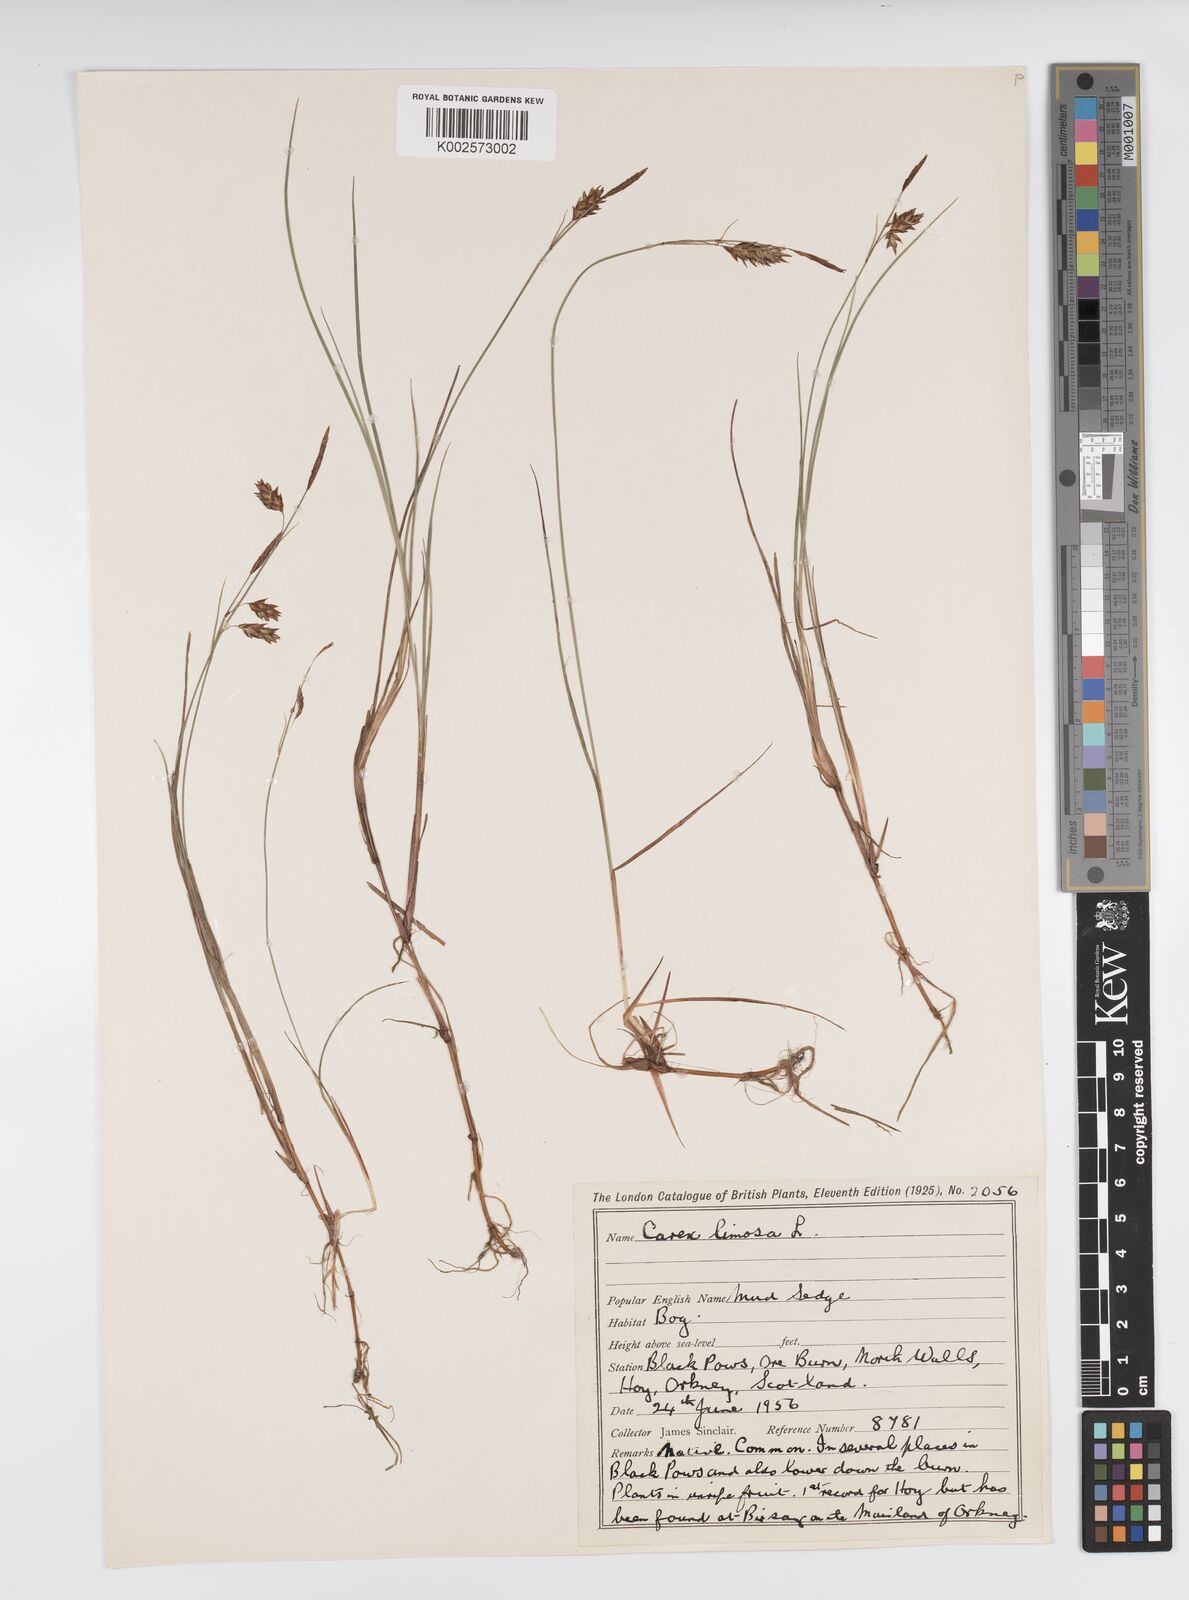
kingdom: Plantae
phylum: Tracheophyta
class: Liliopsida
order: Poales
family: Cyperaceae
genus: Carex
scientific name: Carex limosa
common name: Bog sedge
